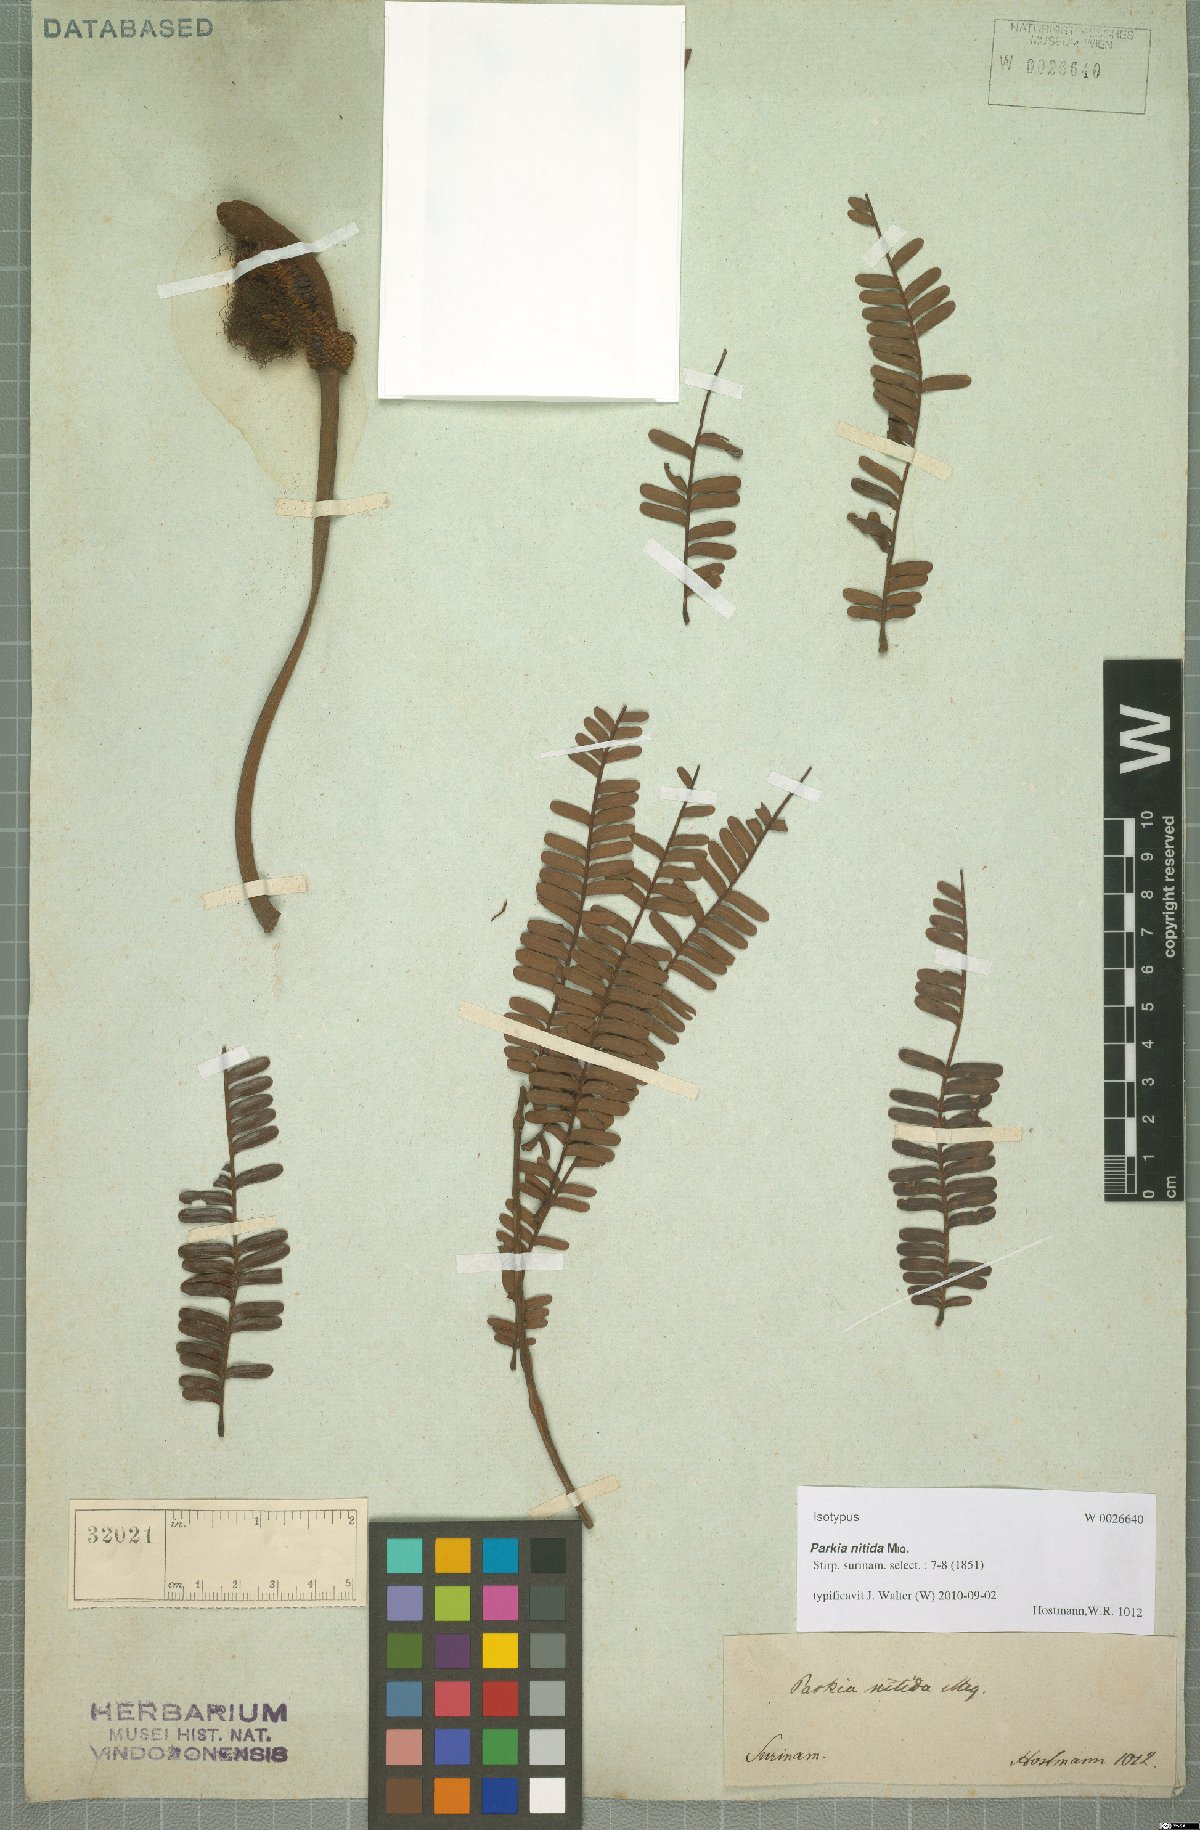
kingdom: Plantae
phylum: Tracheophyta
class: Magnoliopsida
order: Fabales
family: Fabaceae
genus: Parkia
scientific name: Parkia nitida
